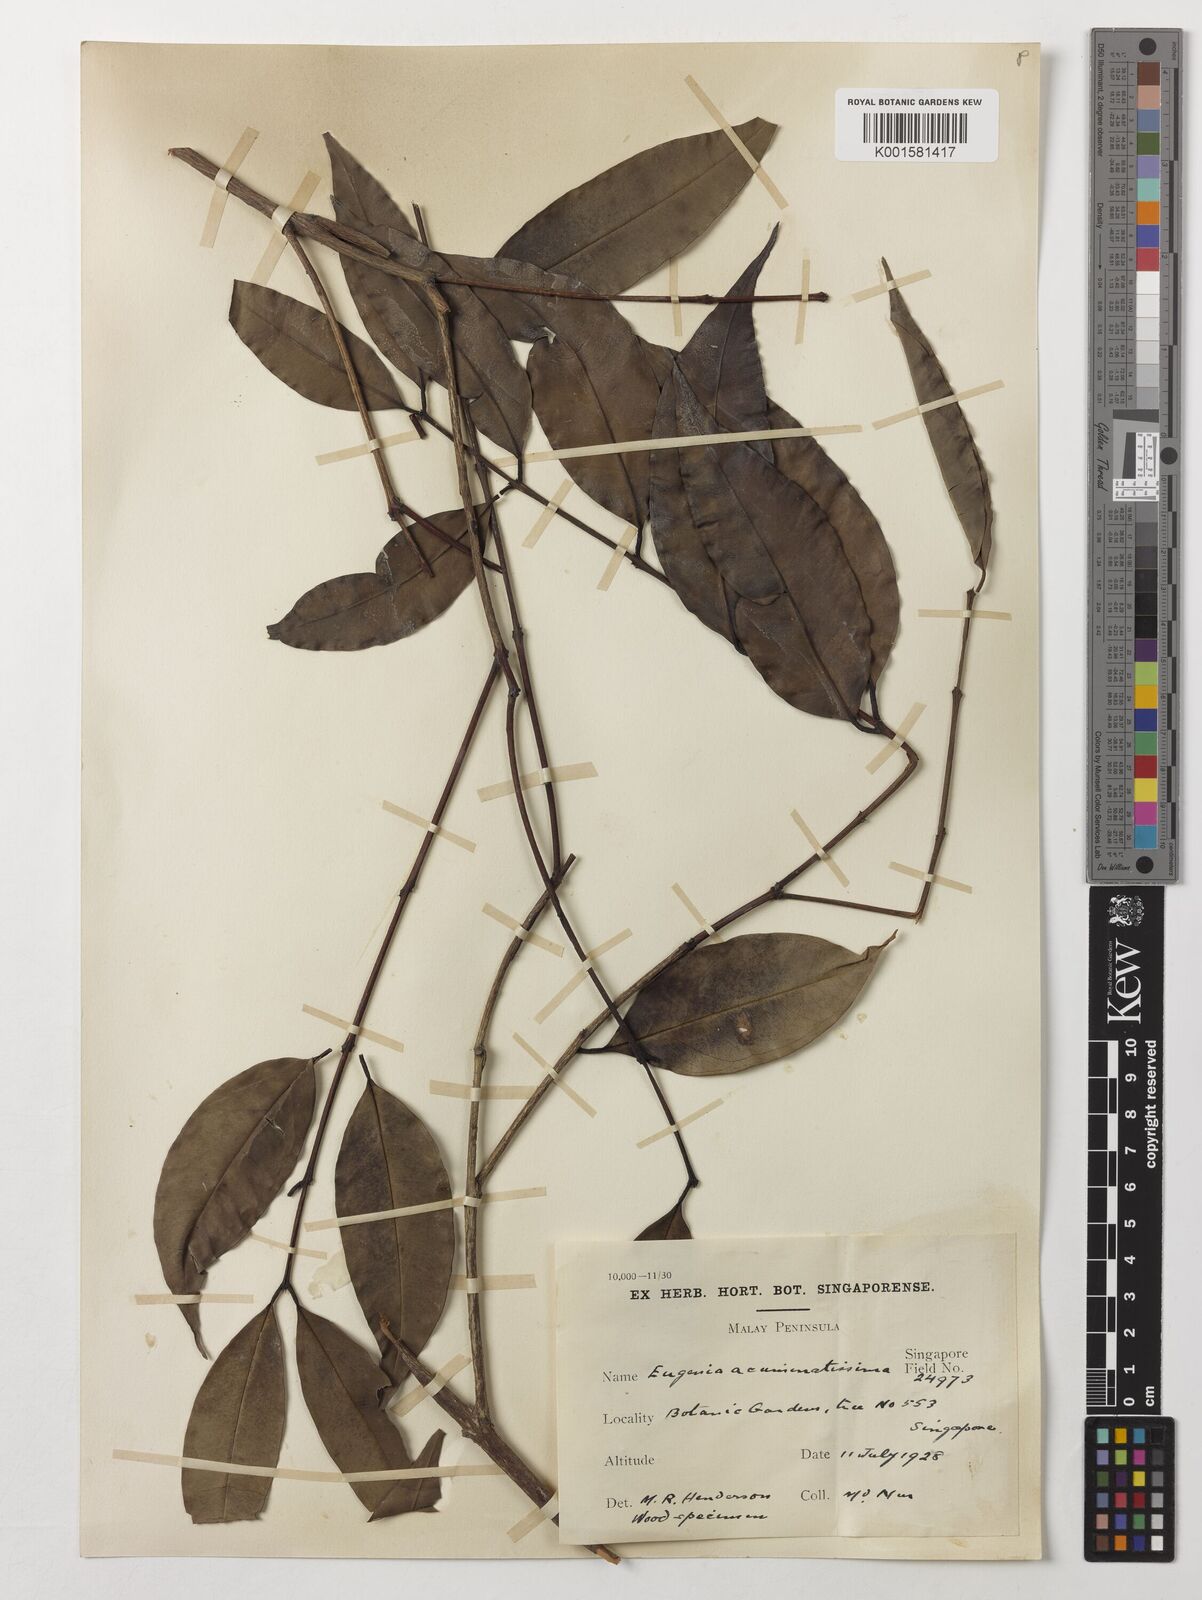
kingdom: Plantae
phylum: Tracheophyta
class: Magnoliopsida
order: Myrtales
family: Myrtaceae
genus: Eugenia
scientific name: Eugenia biflora
